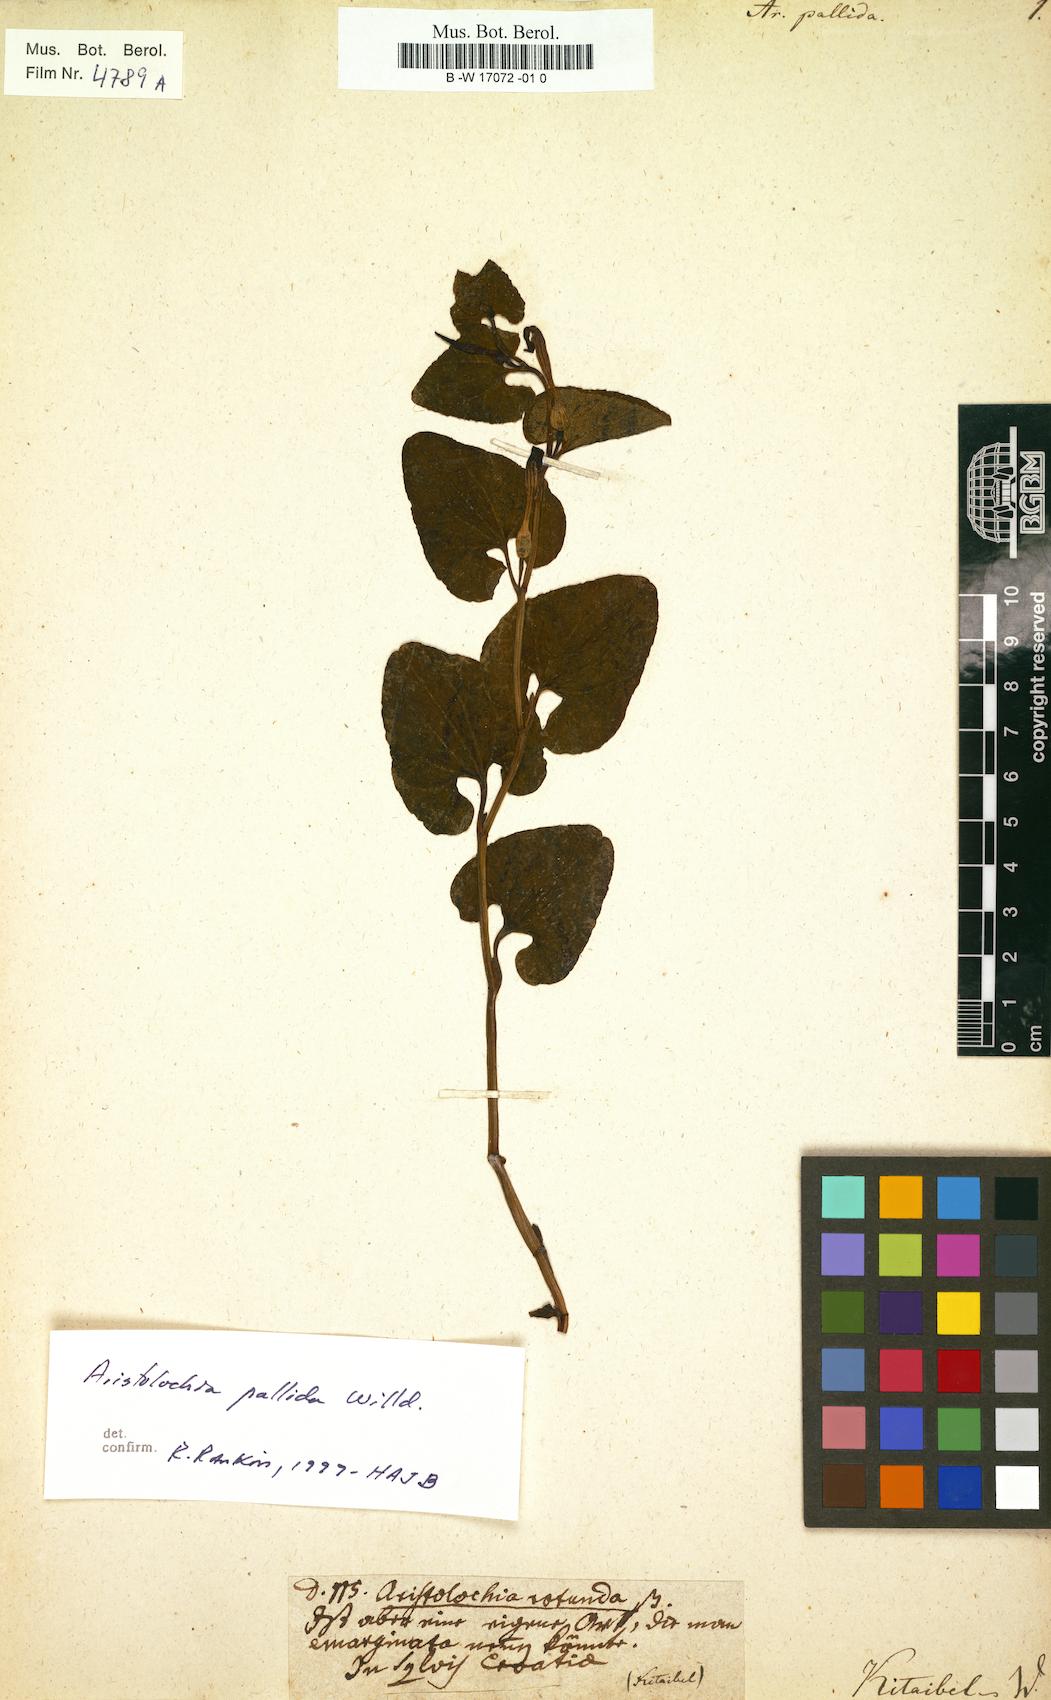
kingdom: Plantae
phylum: Tracheophyta
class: Magnoliopsida
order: Piperales
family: Aristolochiaceae
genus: Aristolochia
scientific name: Aristolochia pallida
